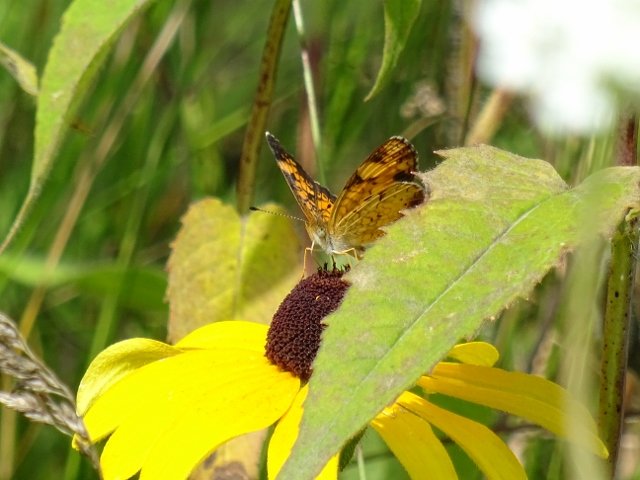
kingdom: Animalia
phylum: Arthropoda
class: Insecta
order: Lepidoptera
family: Nymphalidae
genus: Phyciodes
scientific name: Phyciodes tharos
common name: Pearl Crescent
